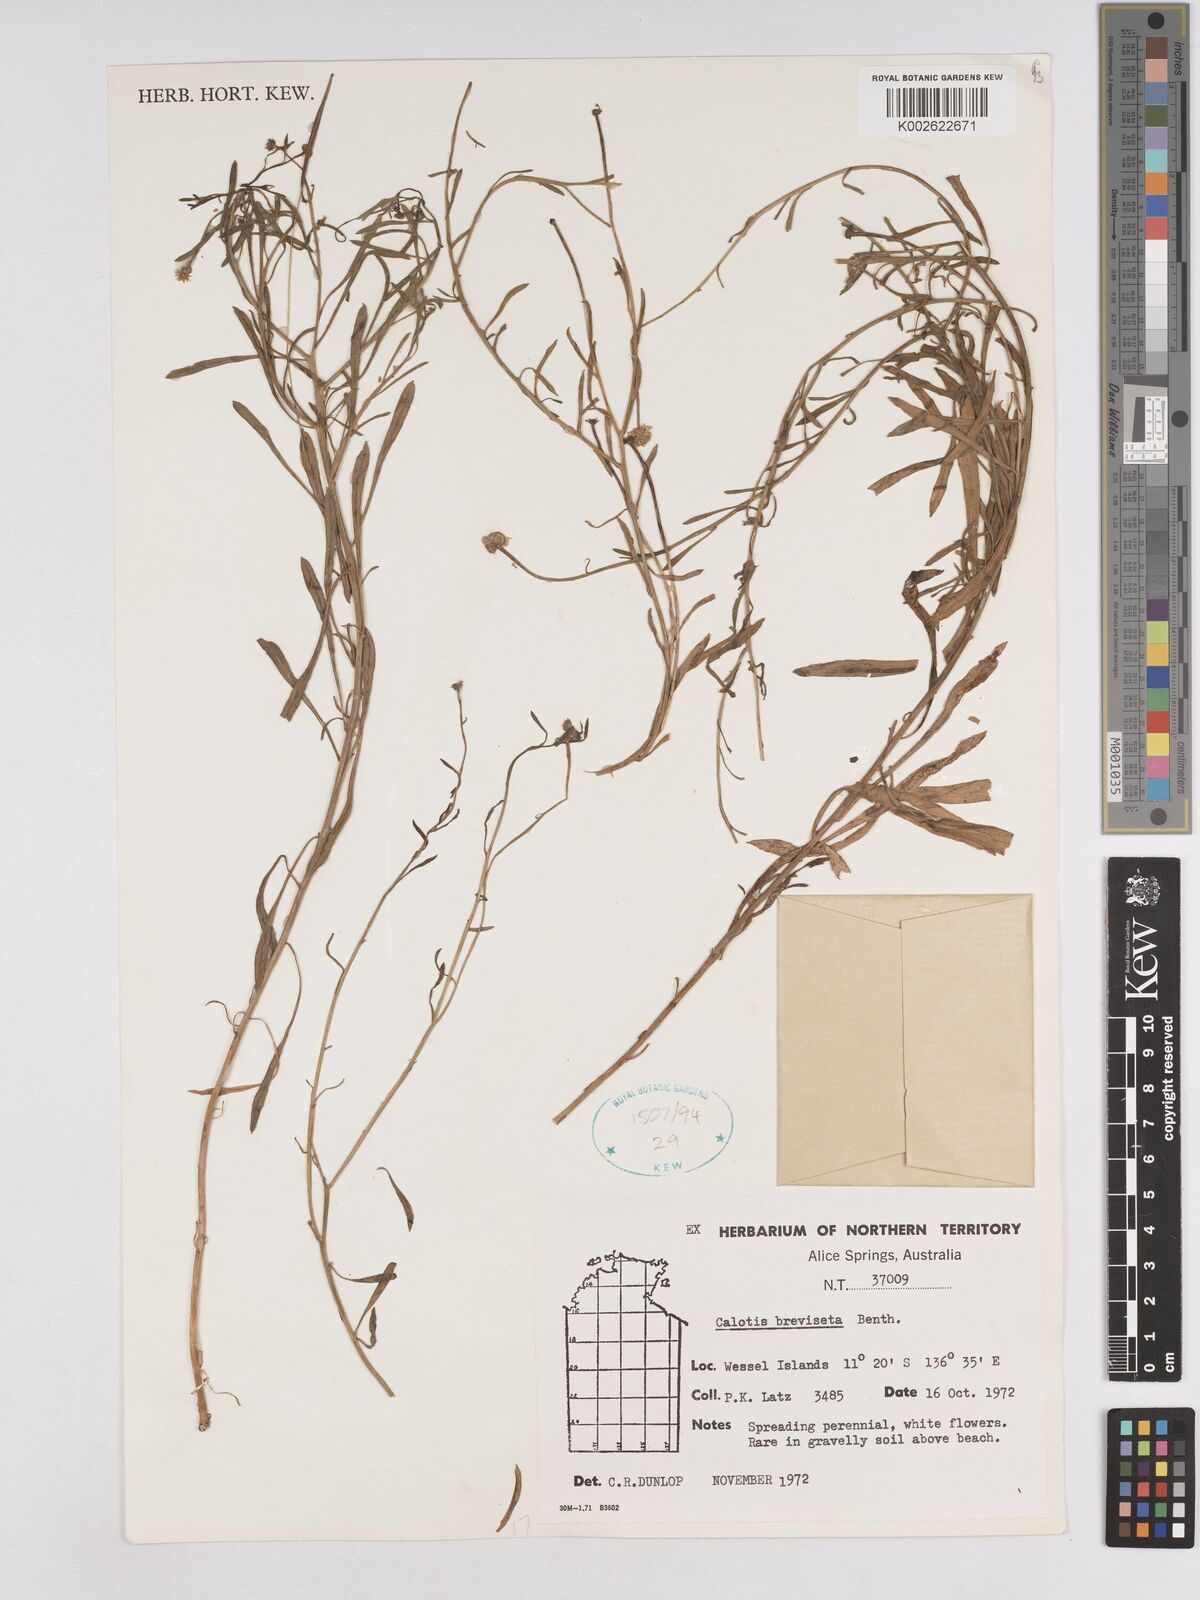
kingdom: Plantae
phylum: Tracheophyta
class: Magnoliopsida
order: Asterales
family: Asteraceae
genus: Calotis
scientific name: Calotis breviseta
